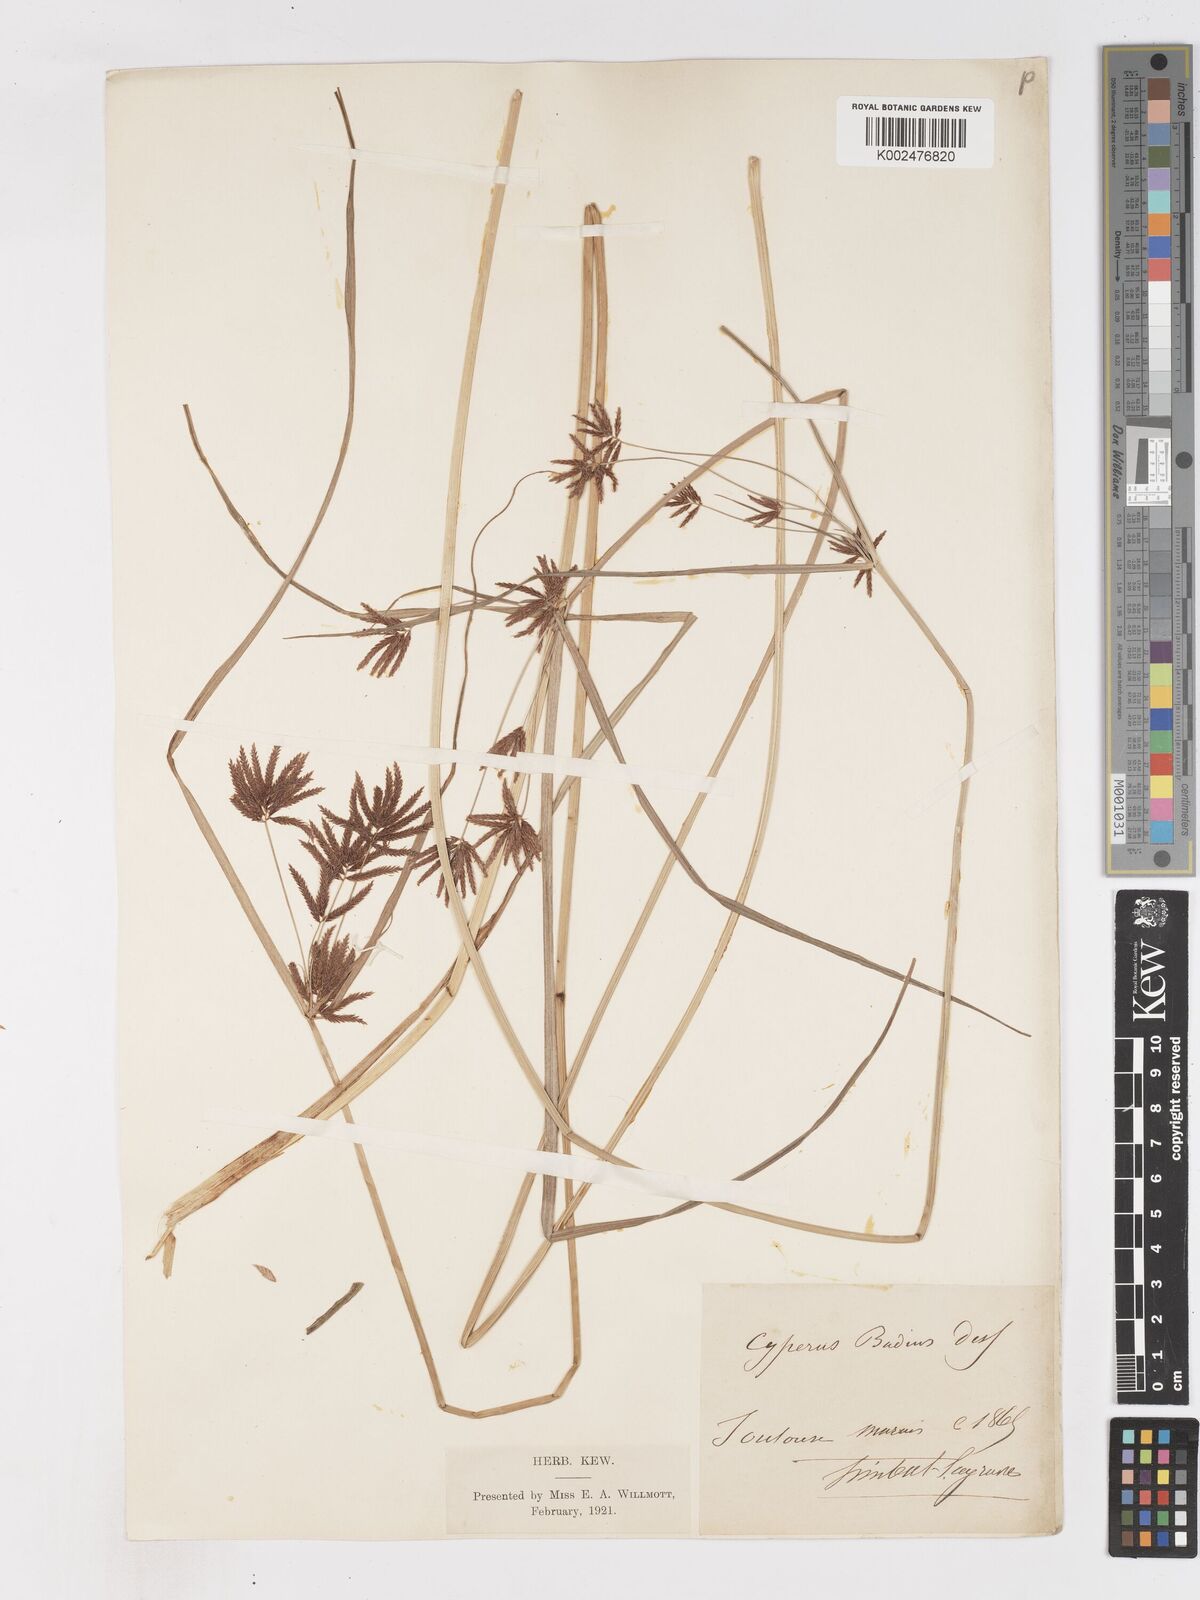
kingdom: Plantae
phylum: Tracheophyta
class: Liliopsida
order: Poales
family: Cyperaceae
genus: Cyperus
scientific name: Cyperus longus
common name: Galingale
